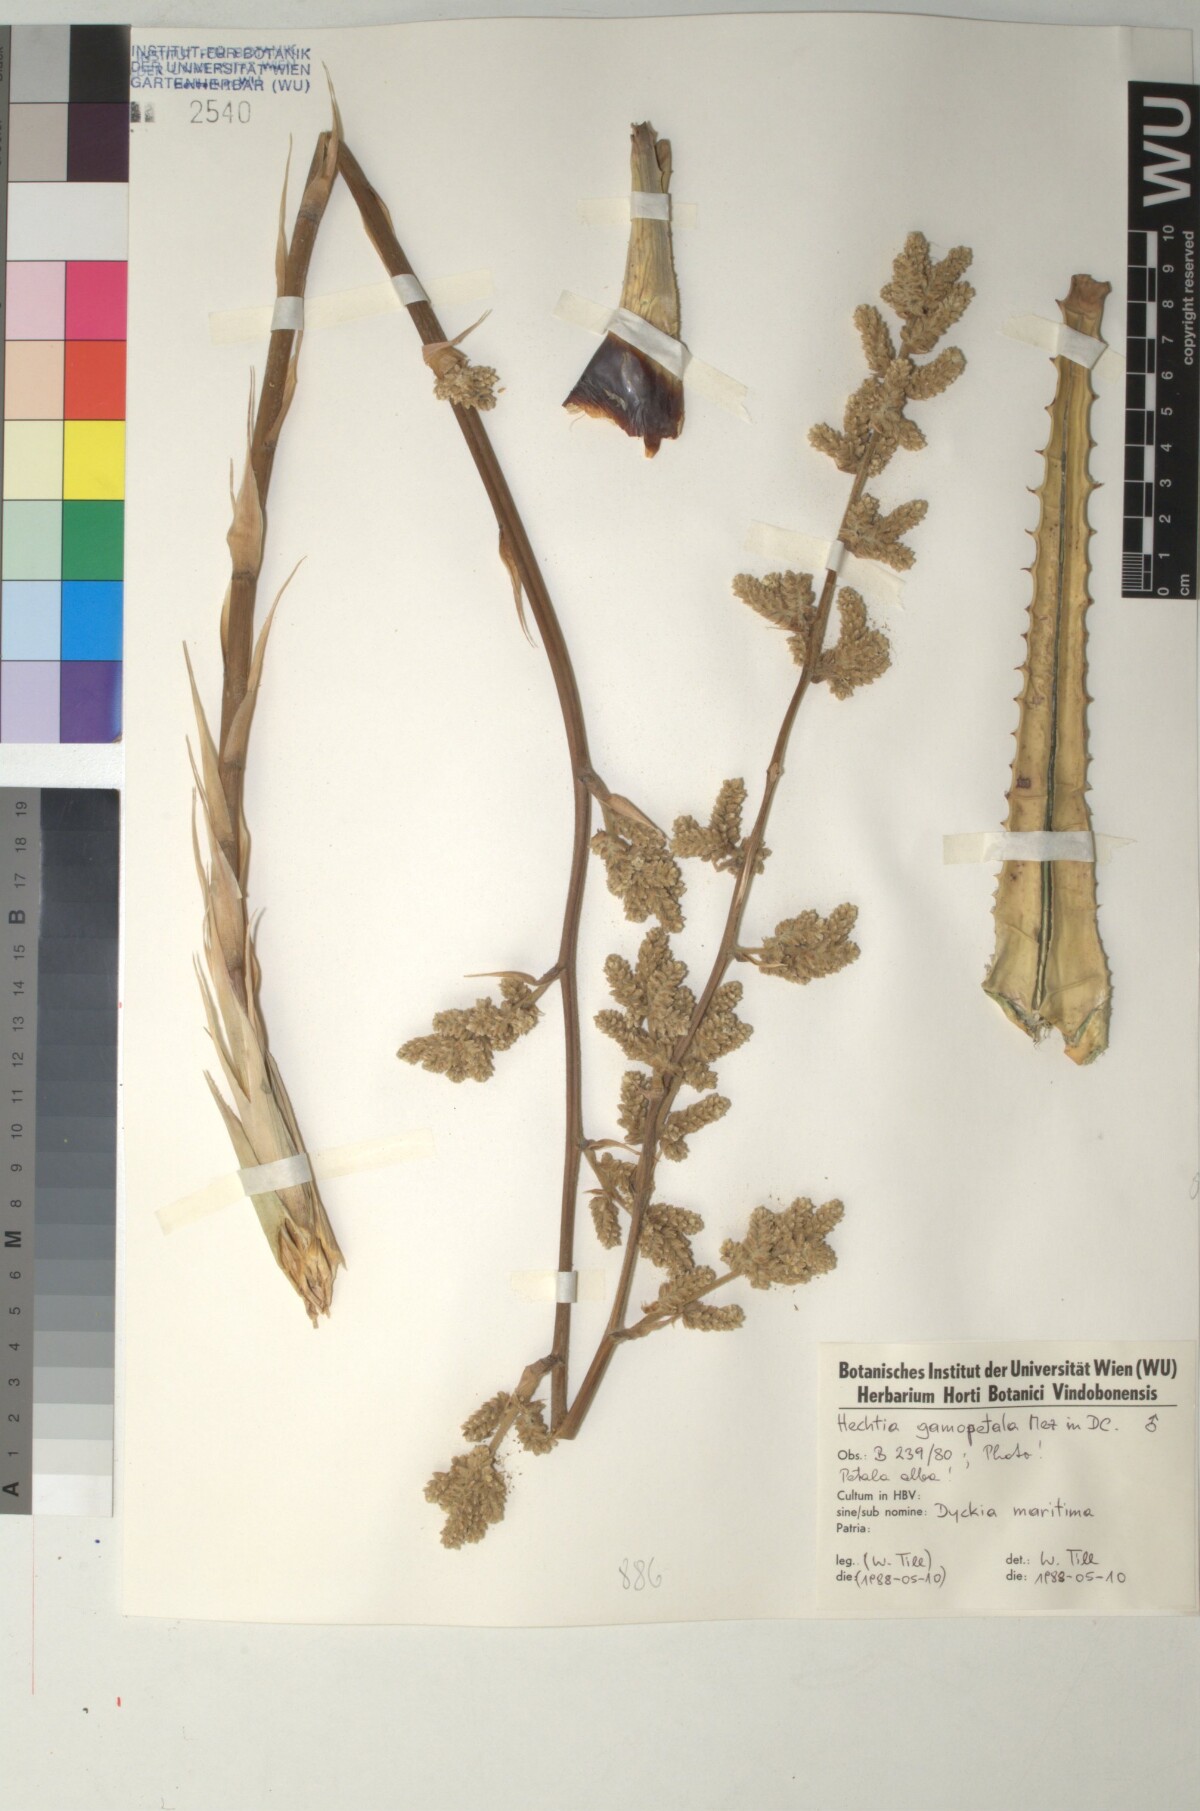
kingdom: Plantae
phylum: Tracheophyta
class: Liliopsida
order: Poales
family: Bromeliaceae
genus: Hechtia
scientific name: Hechtia glomerata
